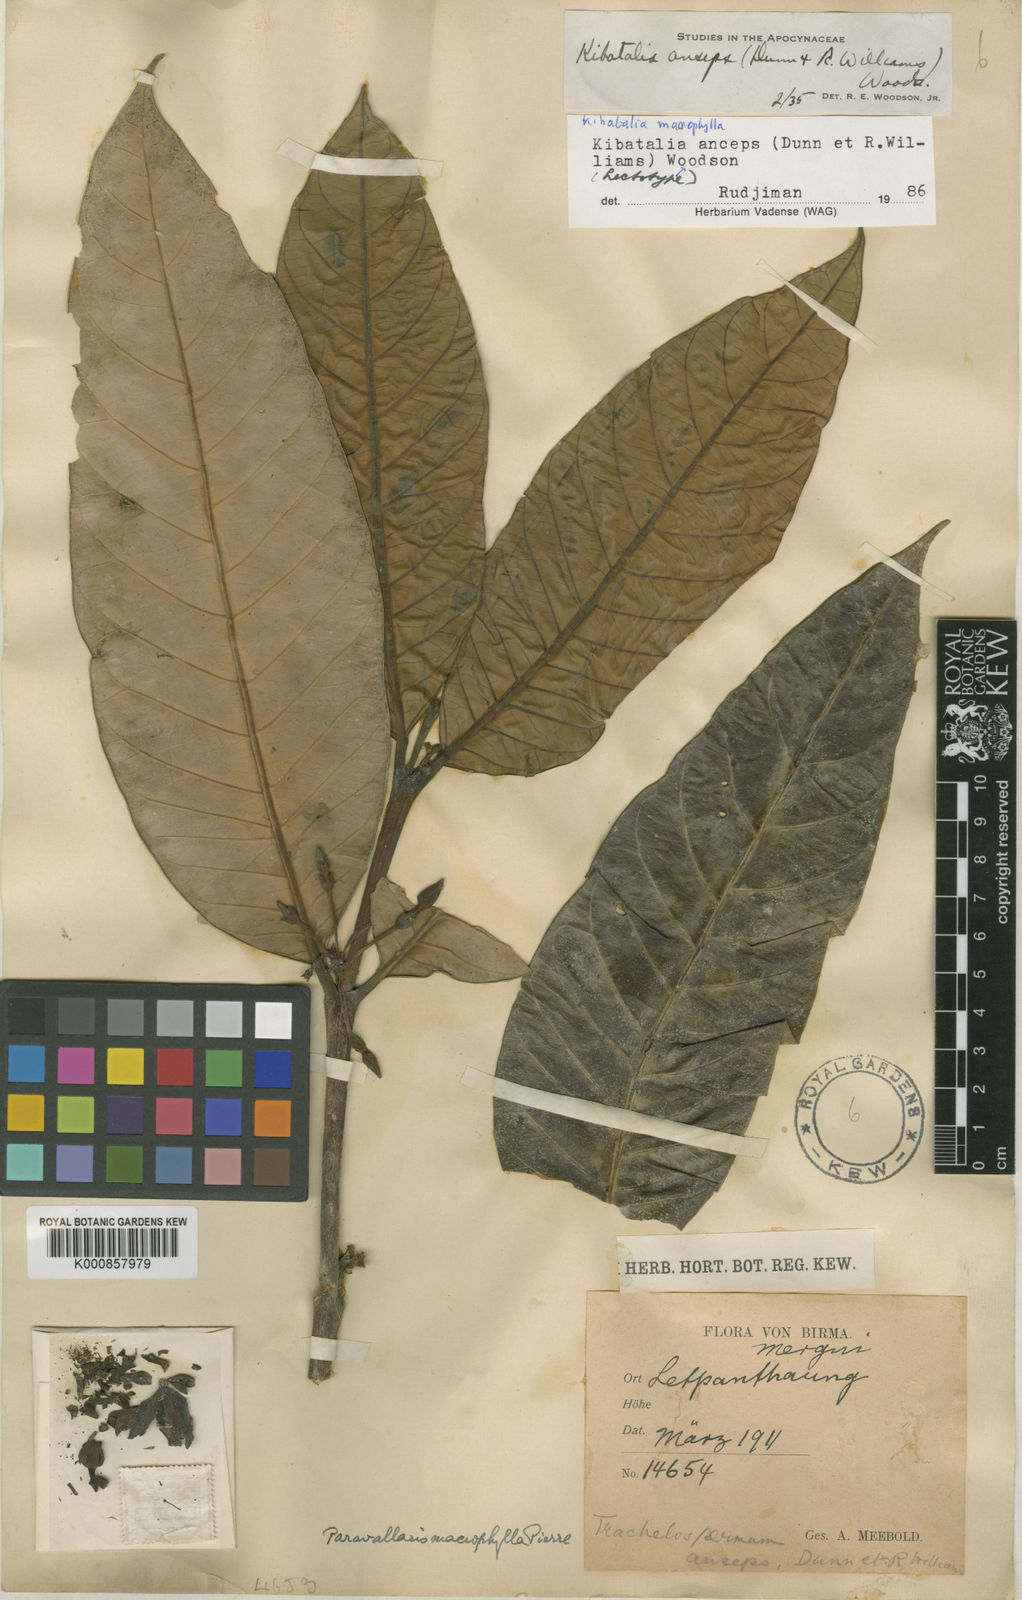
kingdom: Plantae
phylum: Tracheophyta
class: Magnoliopsida
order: Gentianales
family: Apocynaceae
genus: Kibatalia
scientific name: Kibatalia macrophylla
